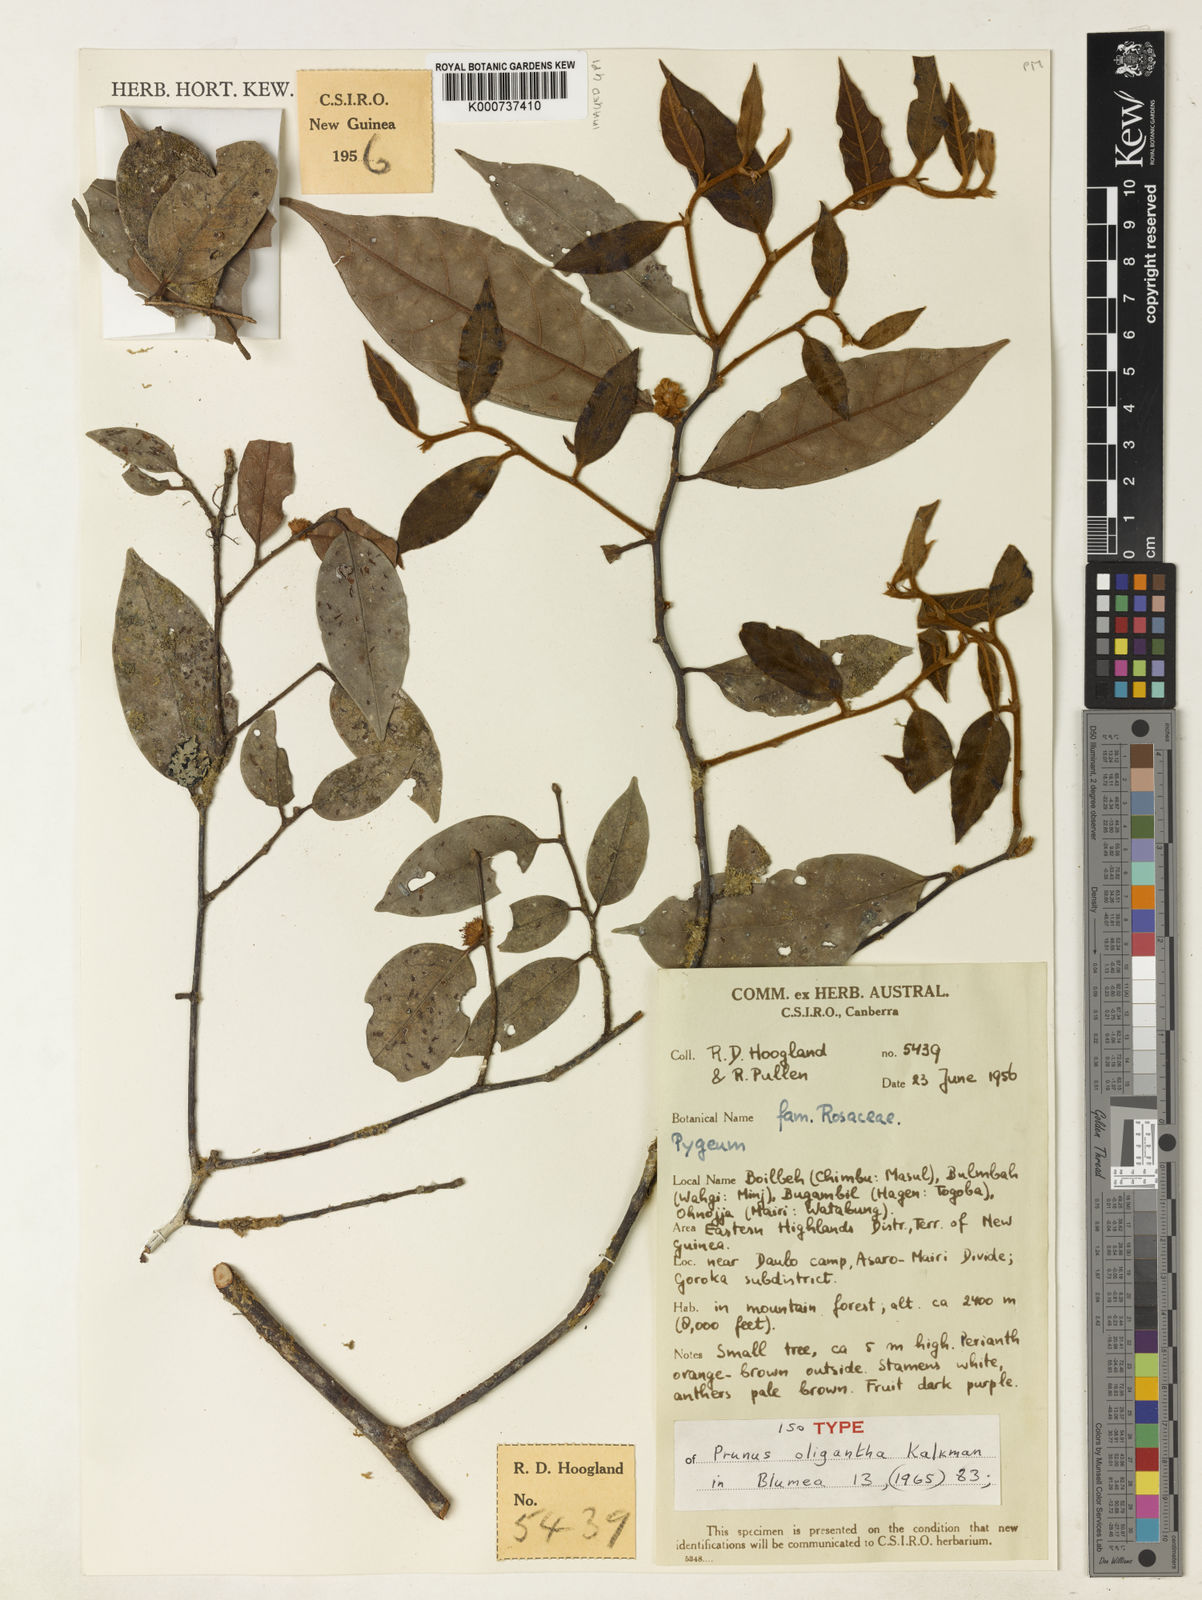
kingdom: Plantae
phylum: Tracheophyta
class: Magnoliopsida
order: Rosales
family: Rosaceae
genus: Prunus
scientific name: Prunus oligantha
